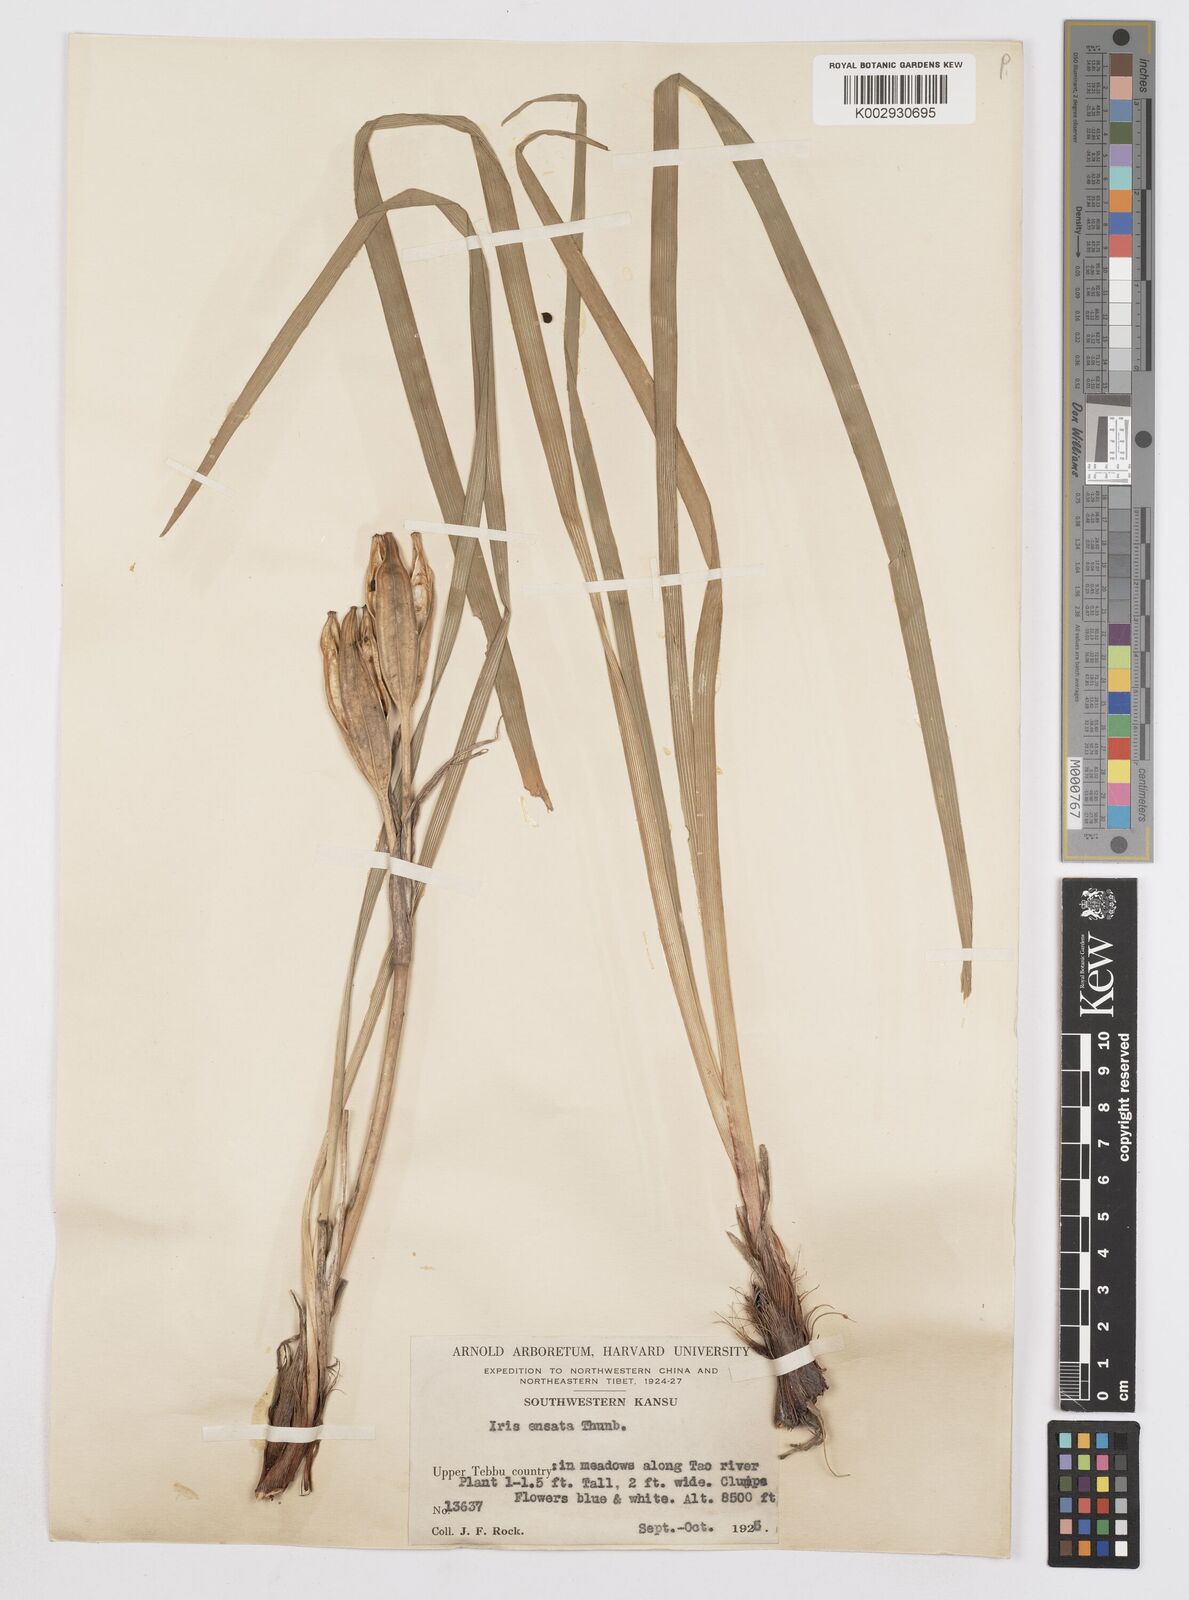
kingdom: Plantae
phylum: Tracheophyta
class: Liliopsida
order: Asparagales
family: Iridaceae
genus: Iris
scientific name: Iris ensata
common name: Beaked iris
